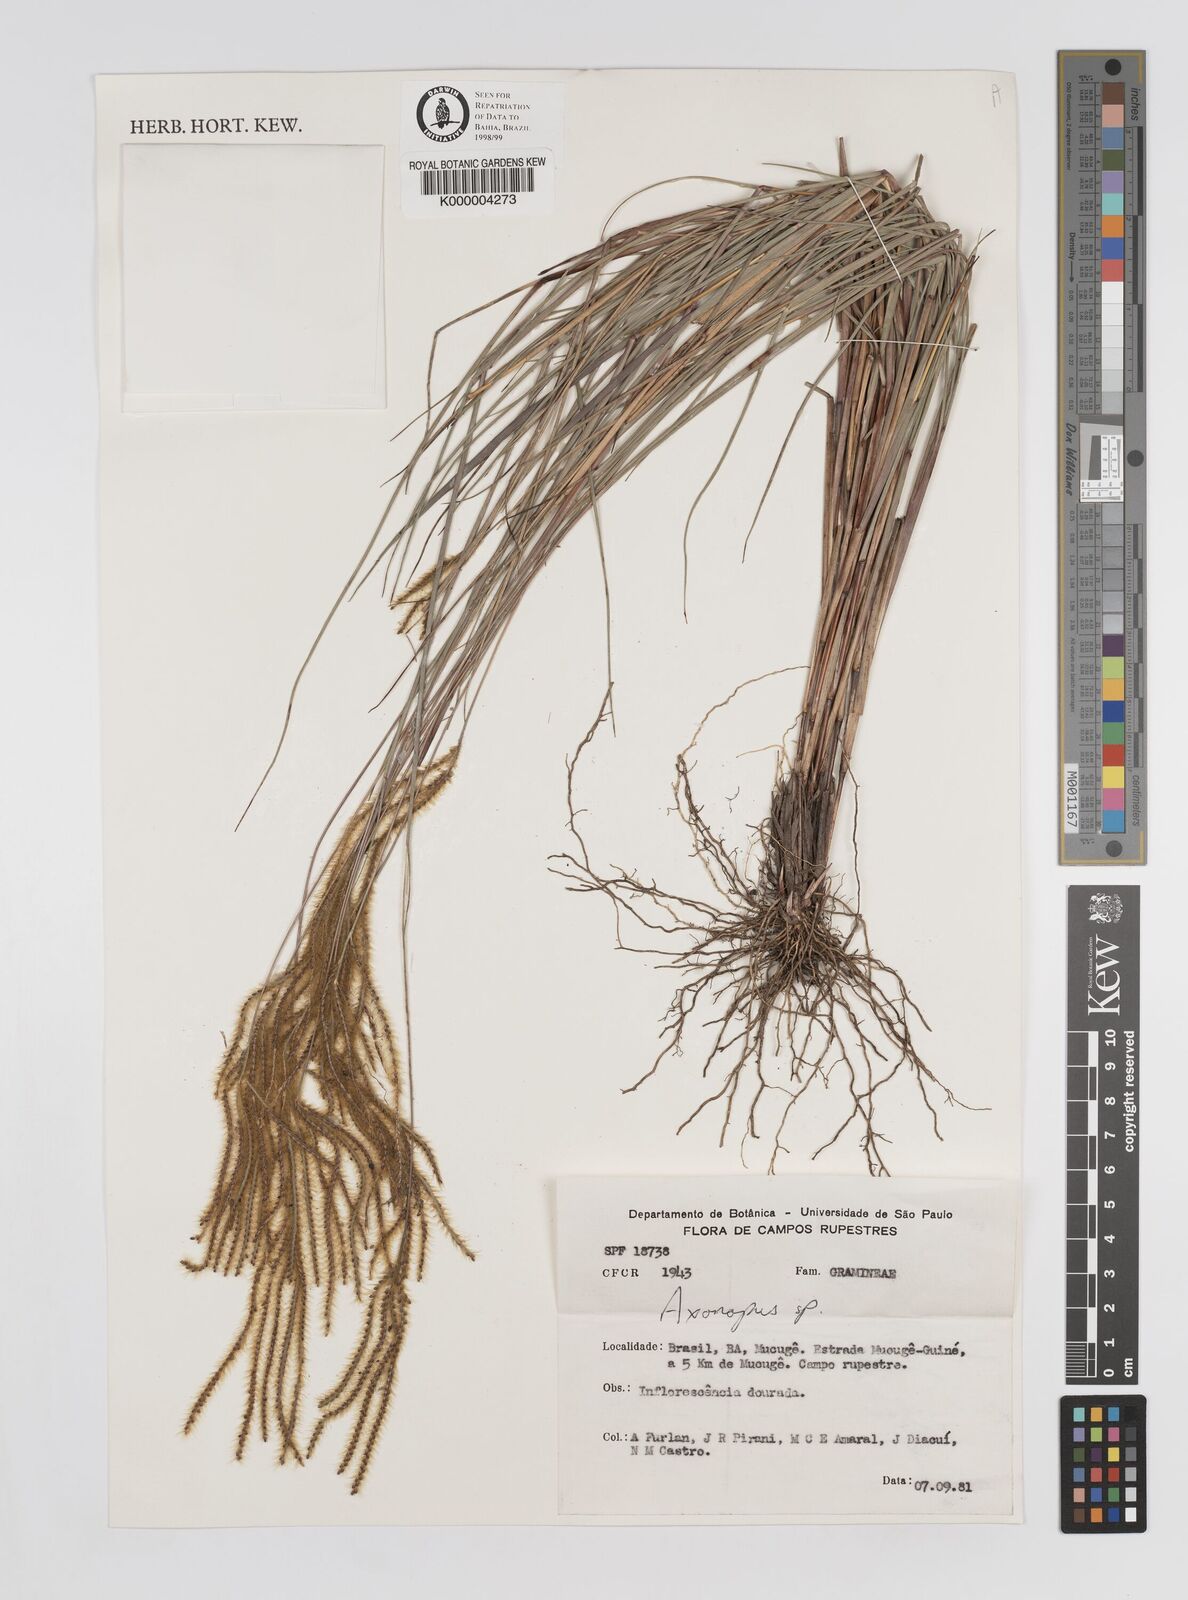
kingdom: Plantae
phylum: Tracheophyta
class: Liliopsida
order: Poales
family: Poaceae
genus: Axonopus
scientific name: Axonopus aureus
